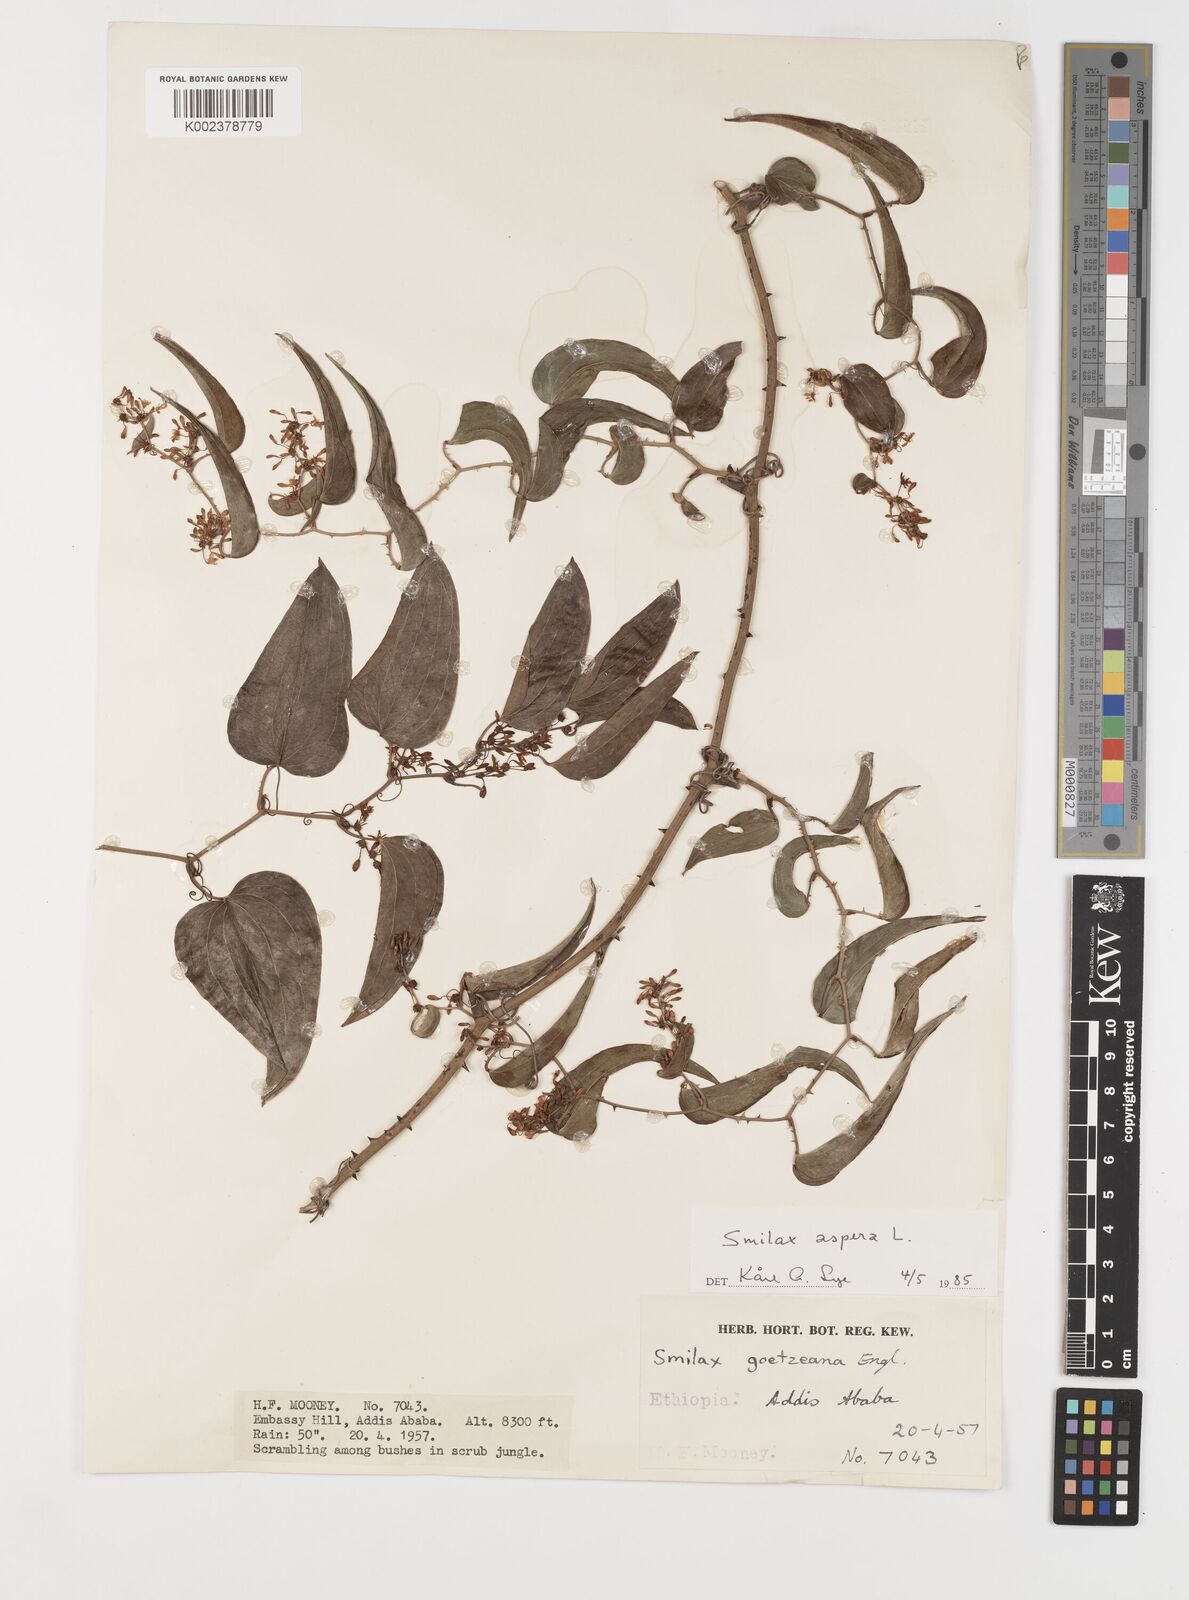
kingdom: Plantae
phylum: Tracheophyta
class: Liliopsida
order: Liliales
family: Smilacaceae
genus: Smilax
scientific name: Smilax aspera
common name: Common smilax
